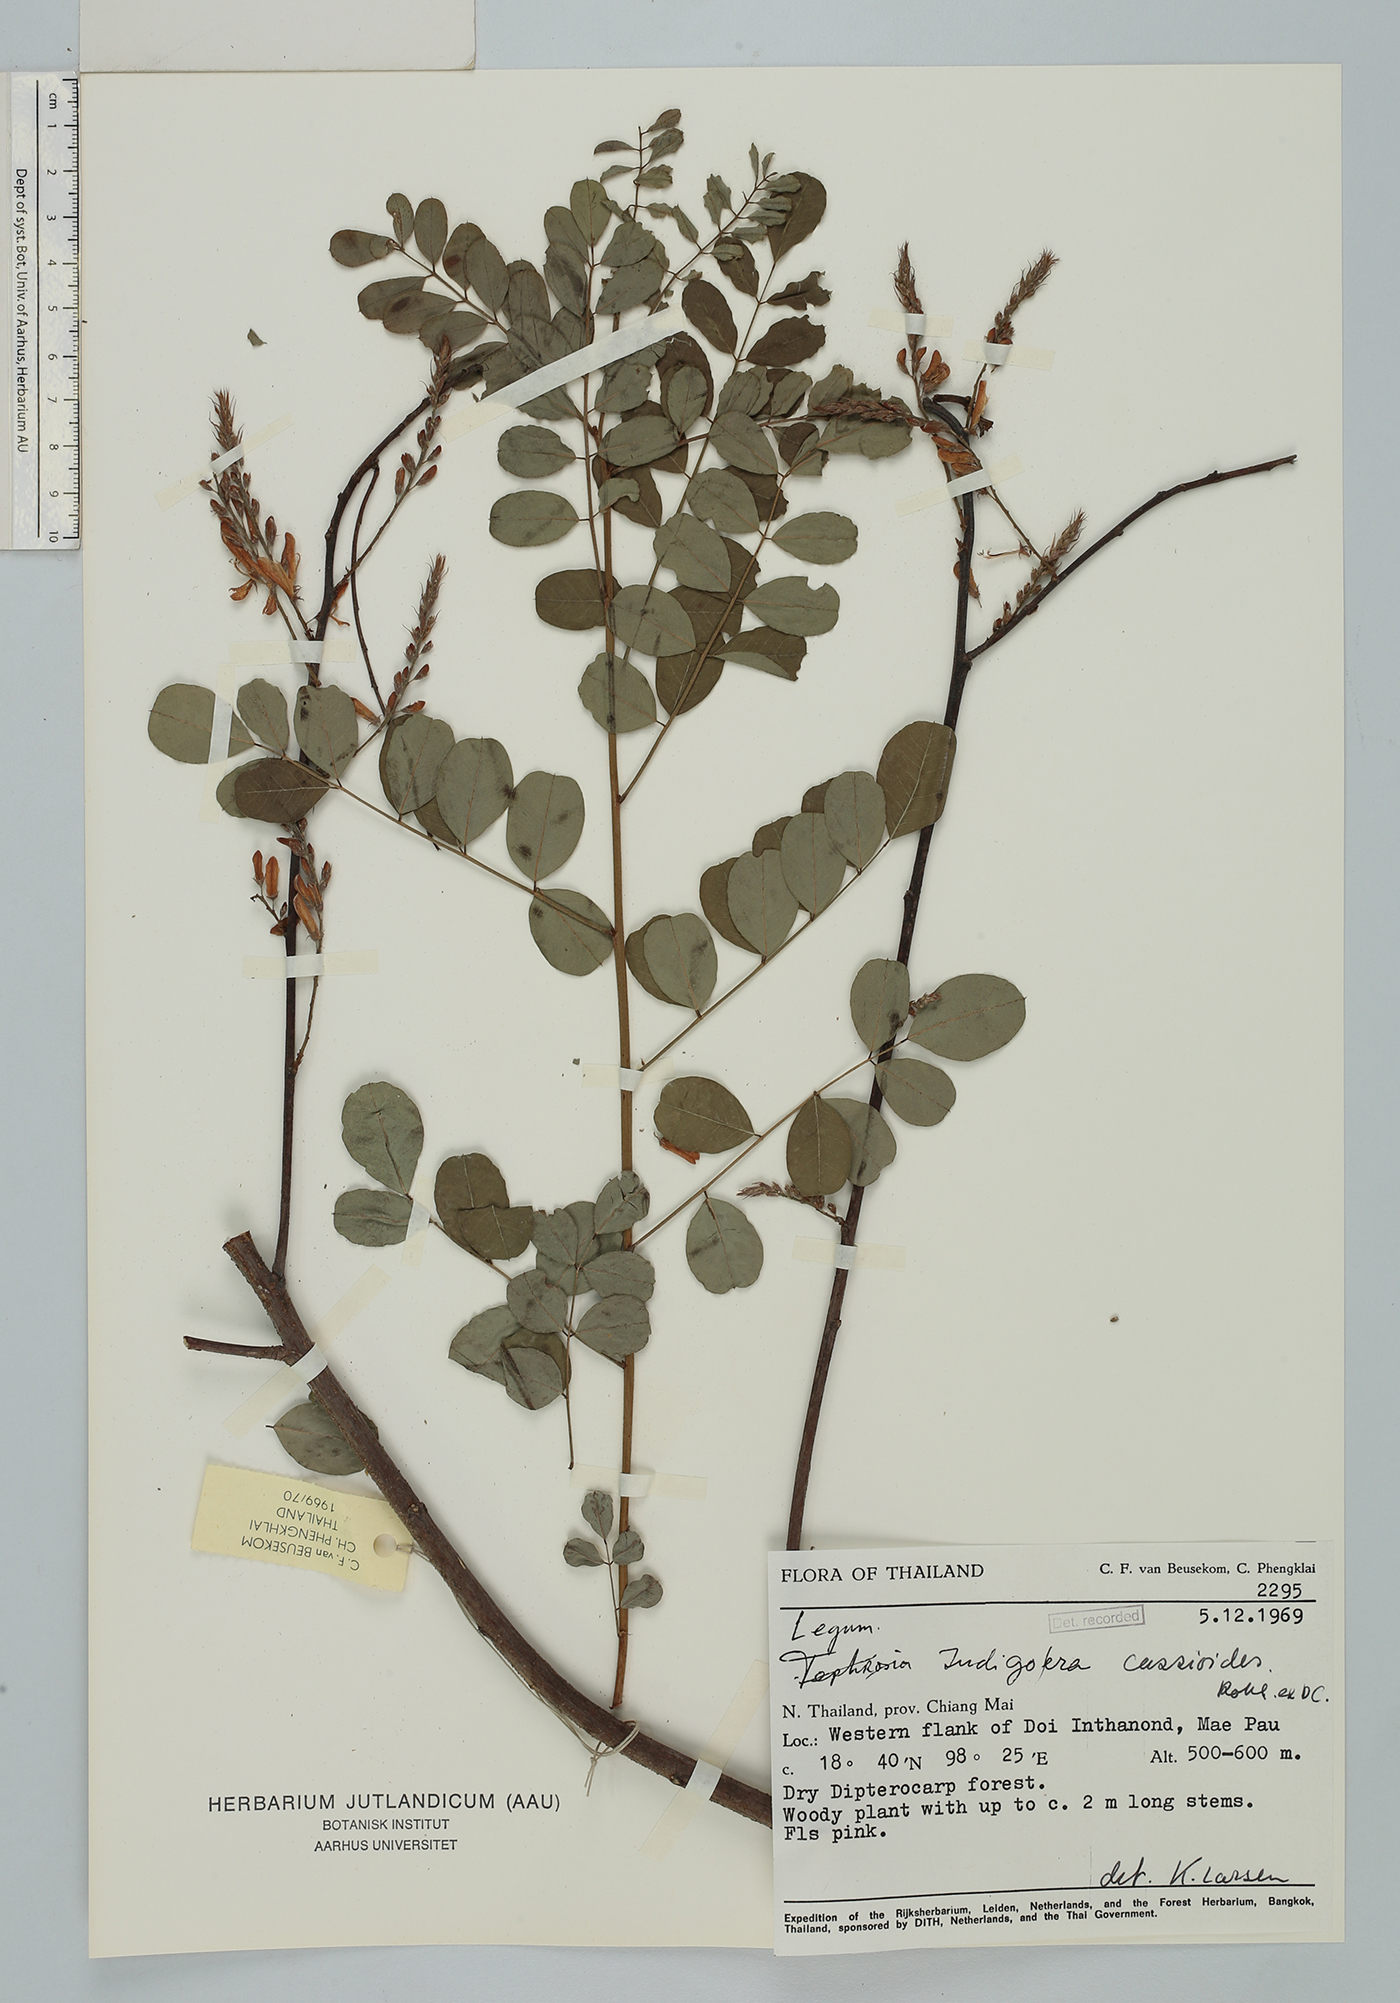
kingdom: Plantae
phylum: Tracheophyta
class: Magnoliopsida
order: Fabales
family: Fabaceae
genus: Indigofera
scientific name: Indigofera cassioides
